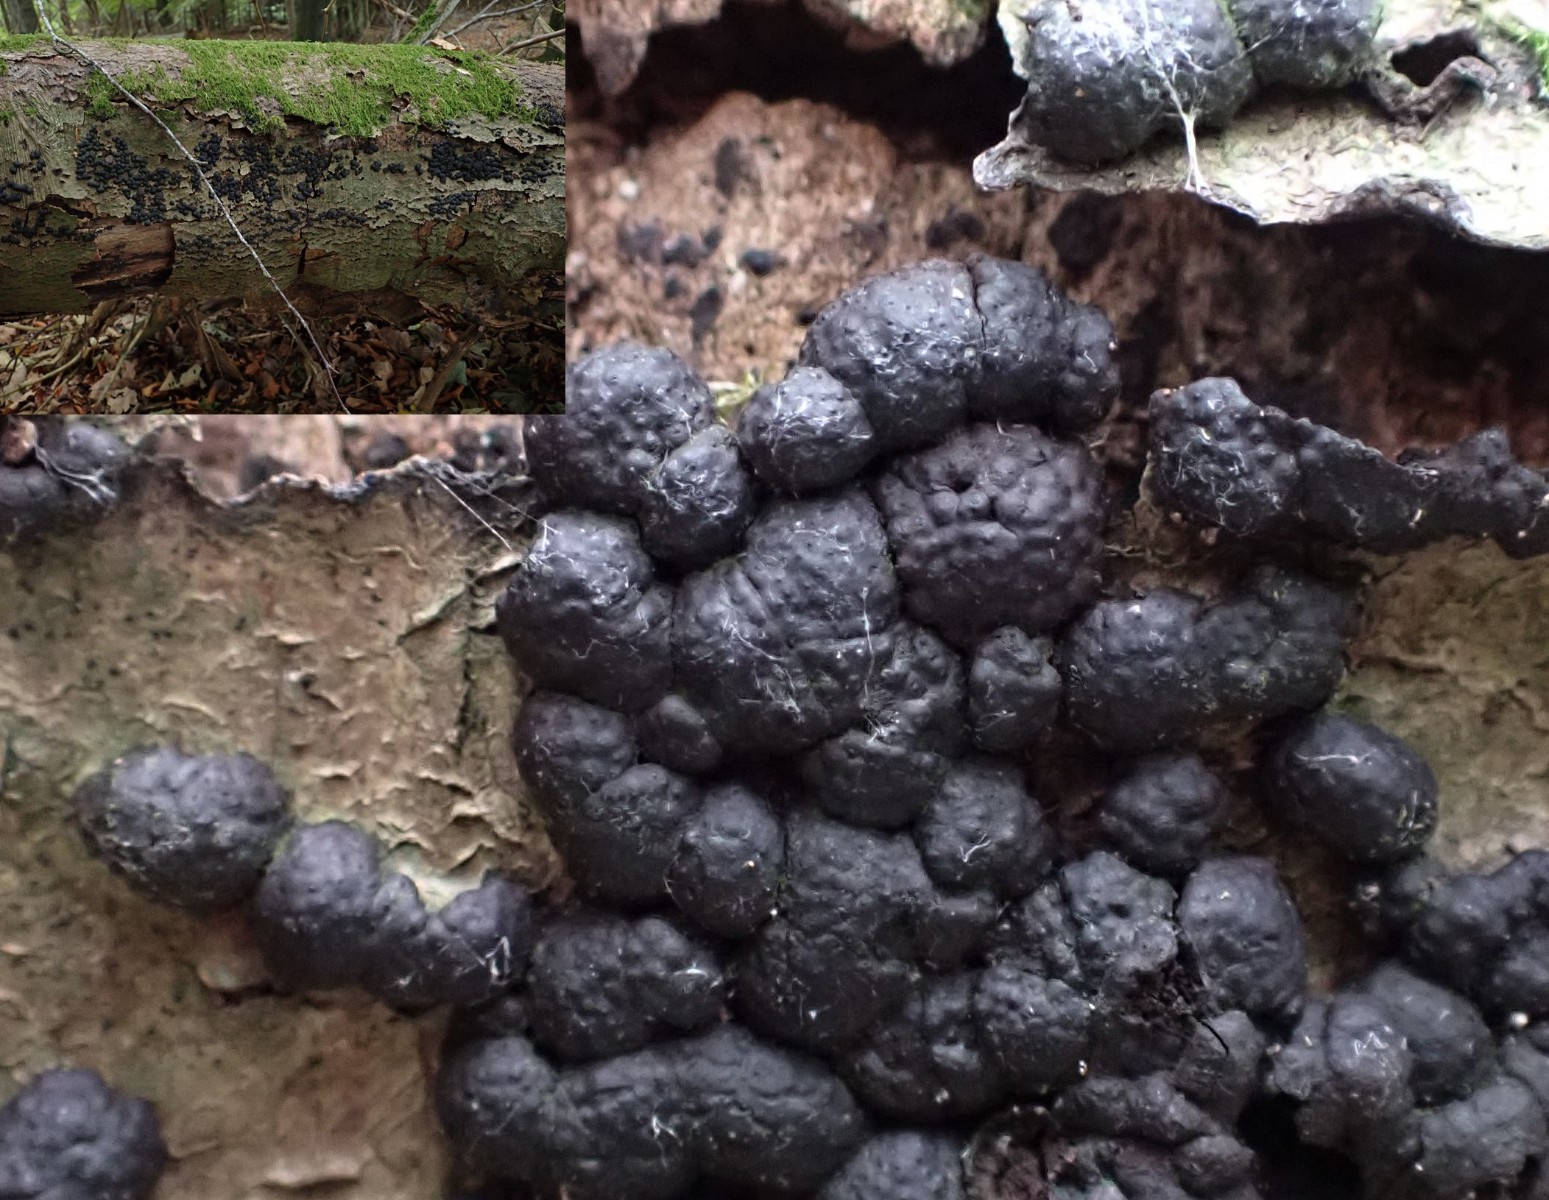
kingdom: Fungi
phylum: Ascomycota
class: Sordariomycetes
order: Xylariales
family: Hypoxylaceae
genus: Jackrogersella
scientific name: Jackrogersella cohaerens
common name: sammenflydende kulbær
